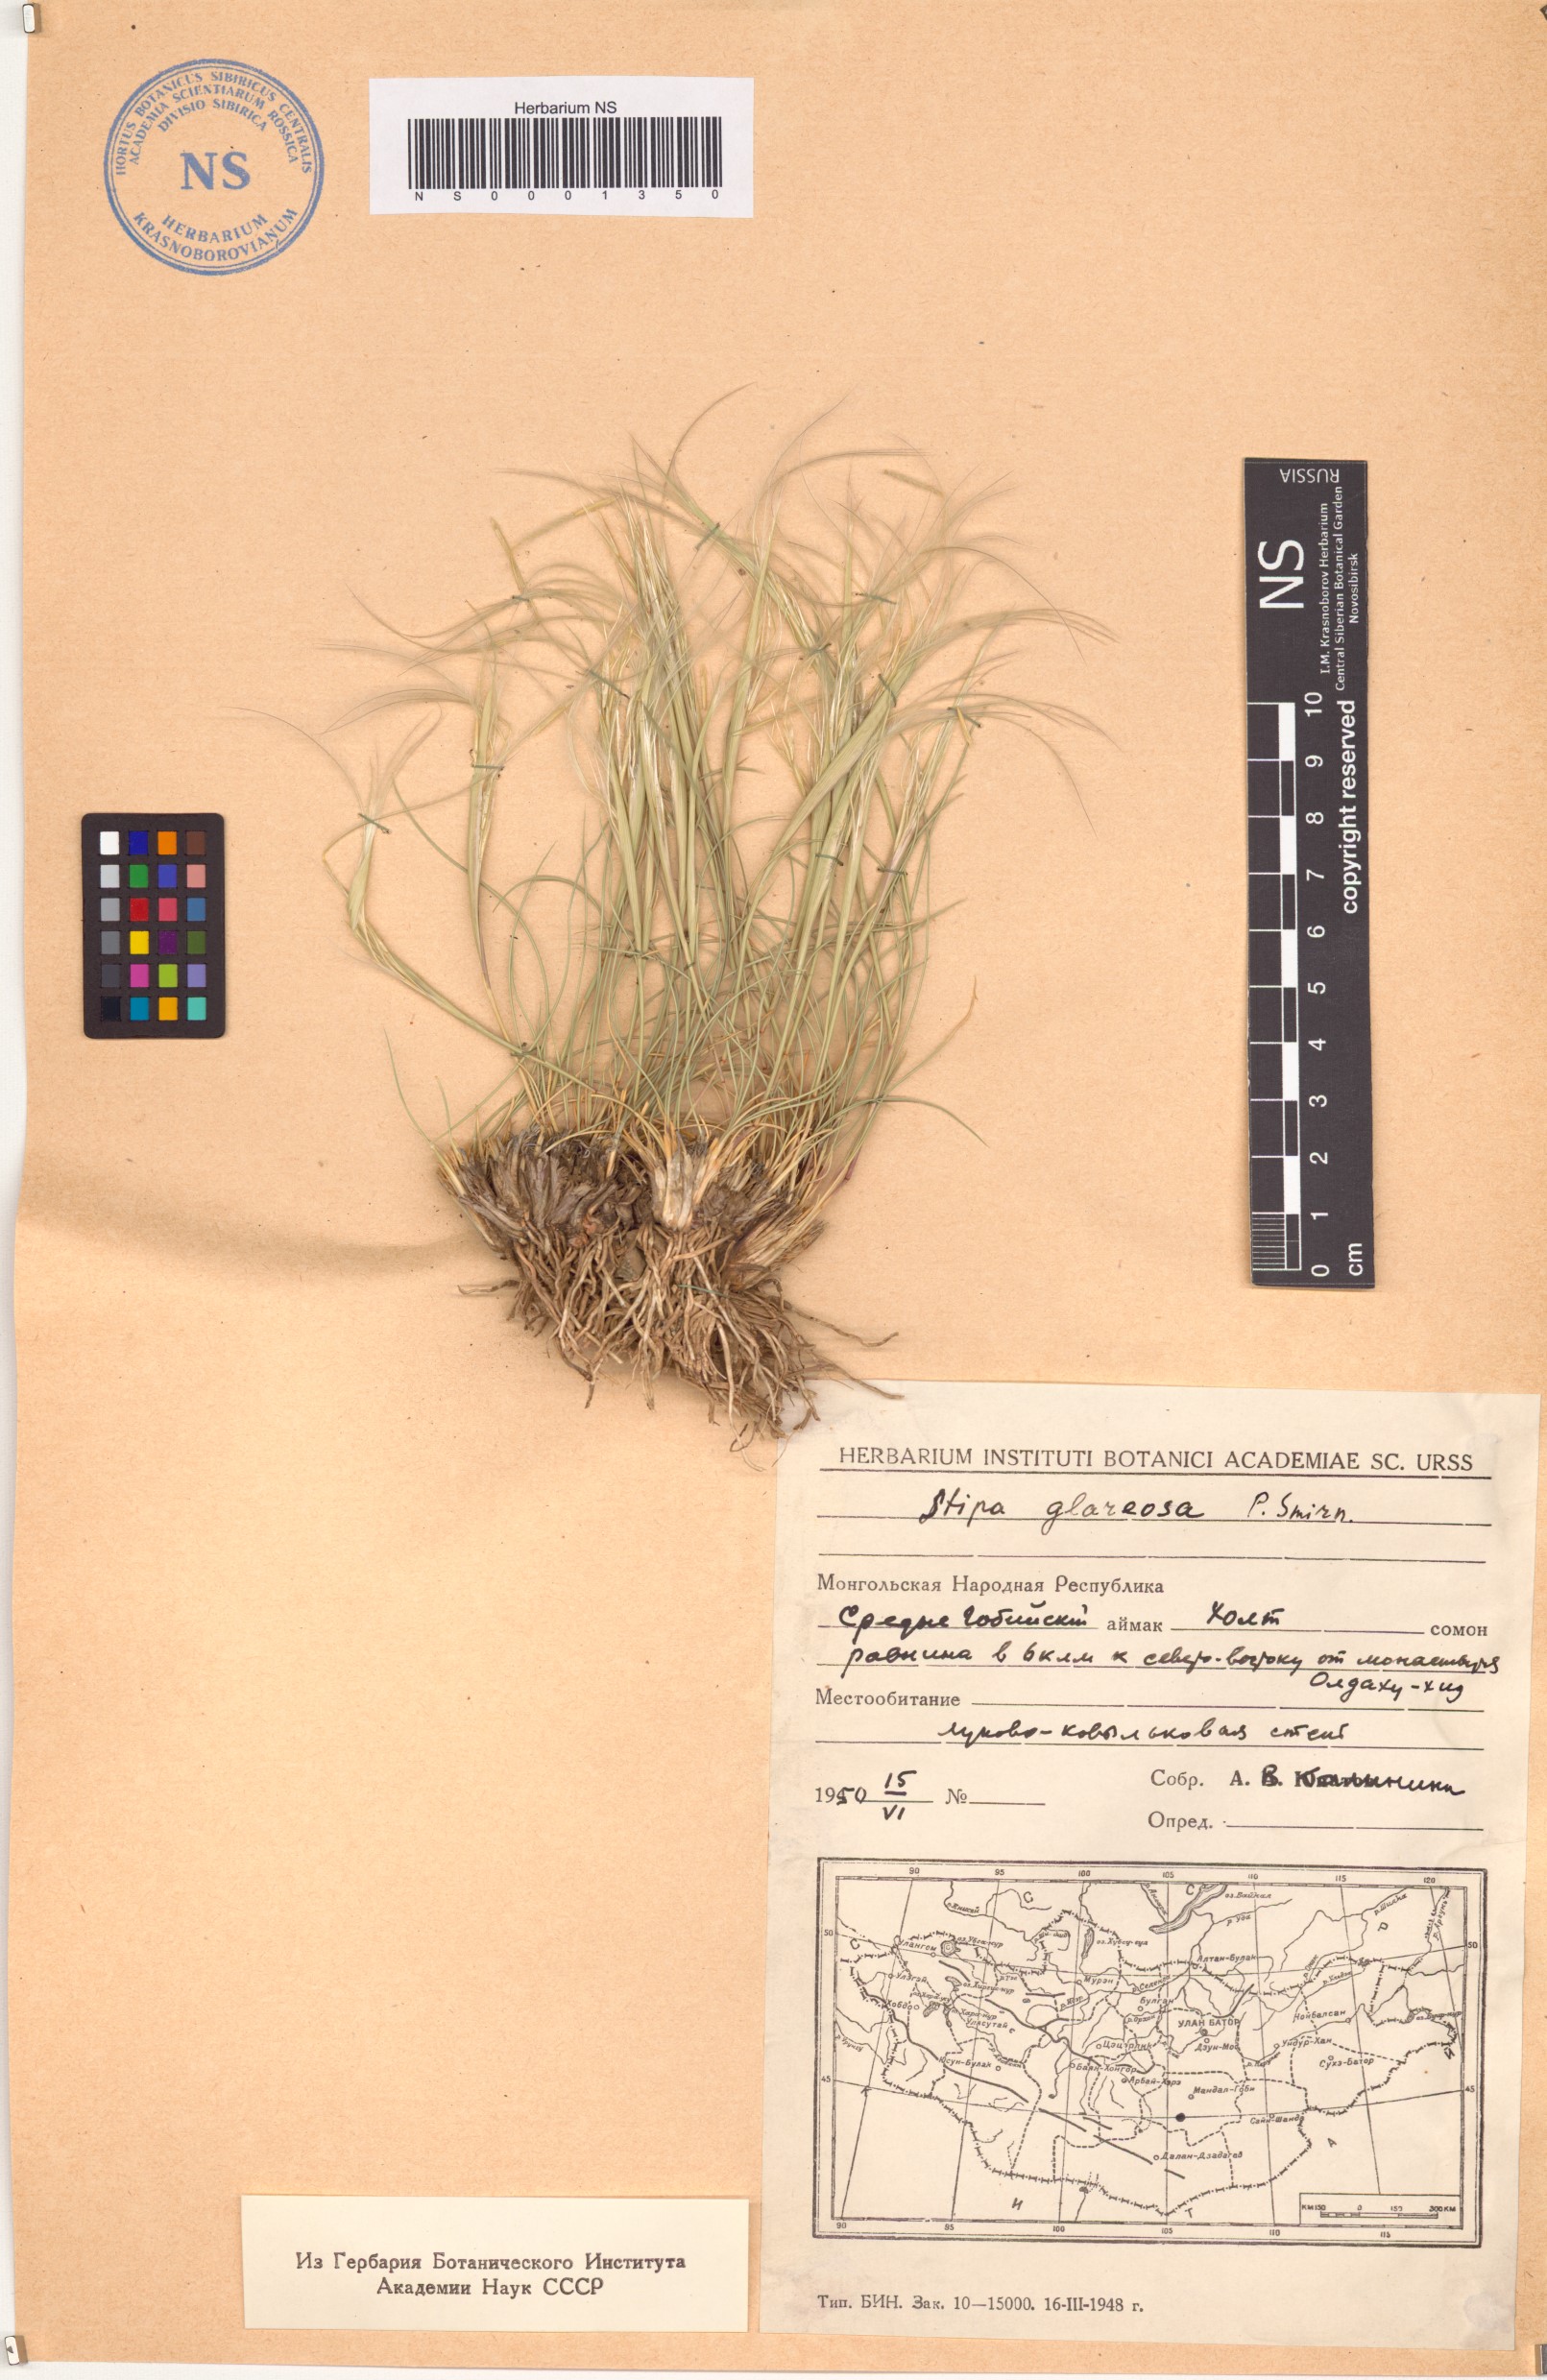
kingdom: Plantae
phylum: Tracheophyta
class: Liliopsida
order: Poales
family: Poaceae
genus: Stipa
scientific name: Stipa glareosa
